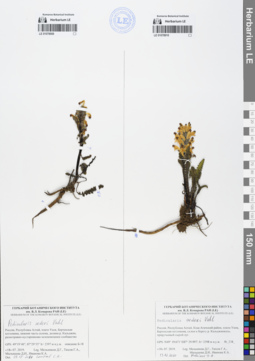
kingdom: Plantae
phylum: Tracheophyta
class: Magnoliopsida
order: Lamiales
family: Orobanchaceae
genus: Pedicularis
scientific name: Pedicularis oederi
